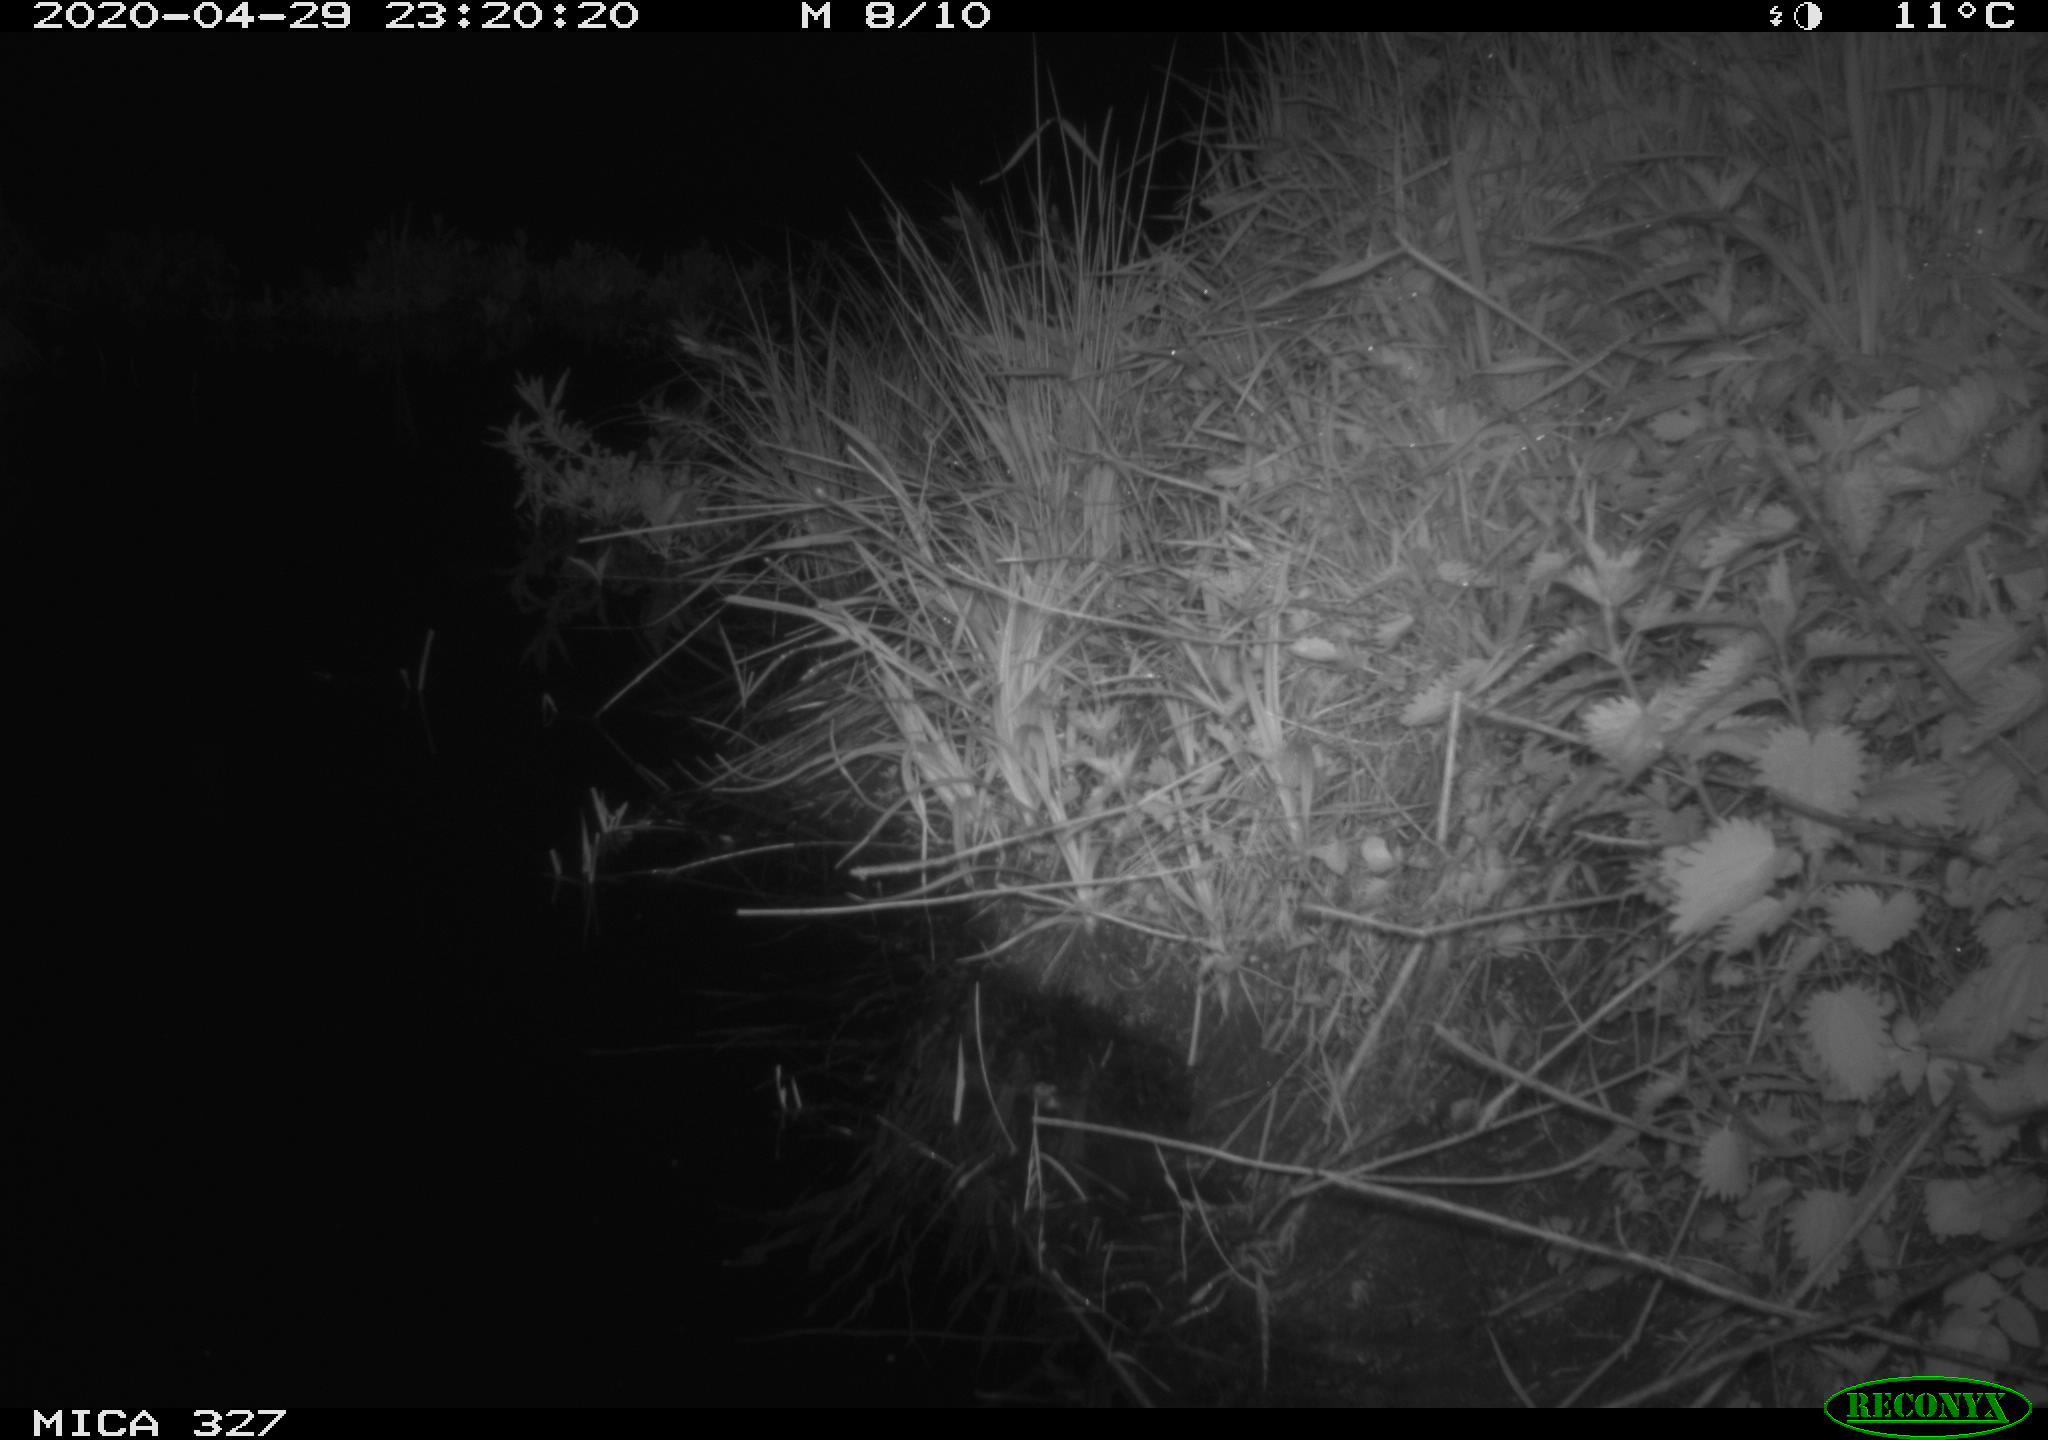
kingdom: Animalia
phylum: Chordata
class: Mammalia
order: Rodentia
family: Muridae
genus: Rattus
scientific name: Rattus norvegicus
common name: Brown rat
